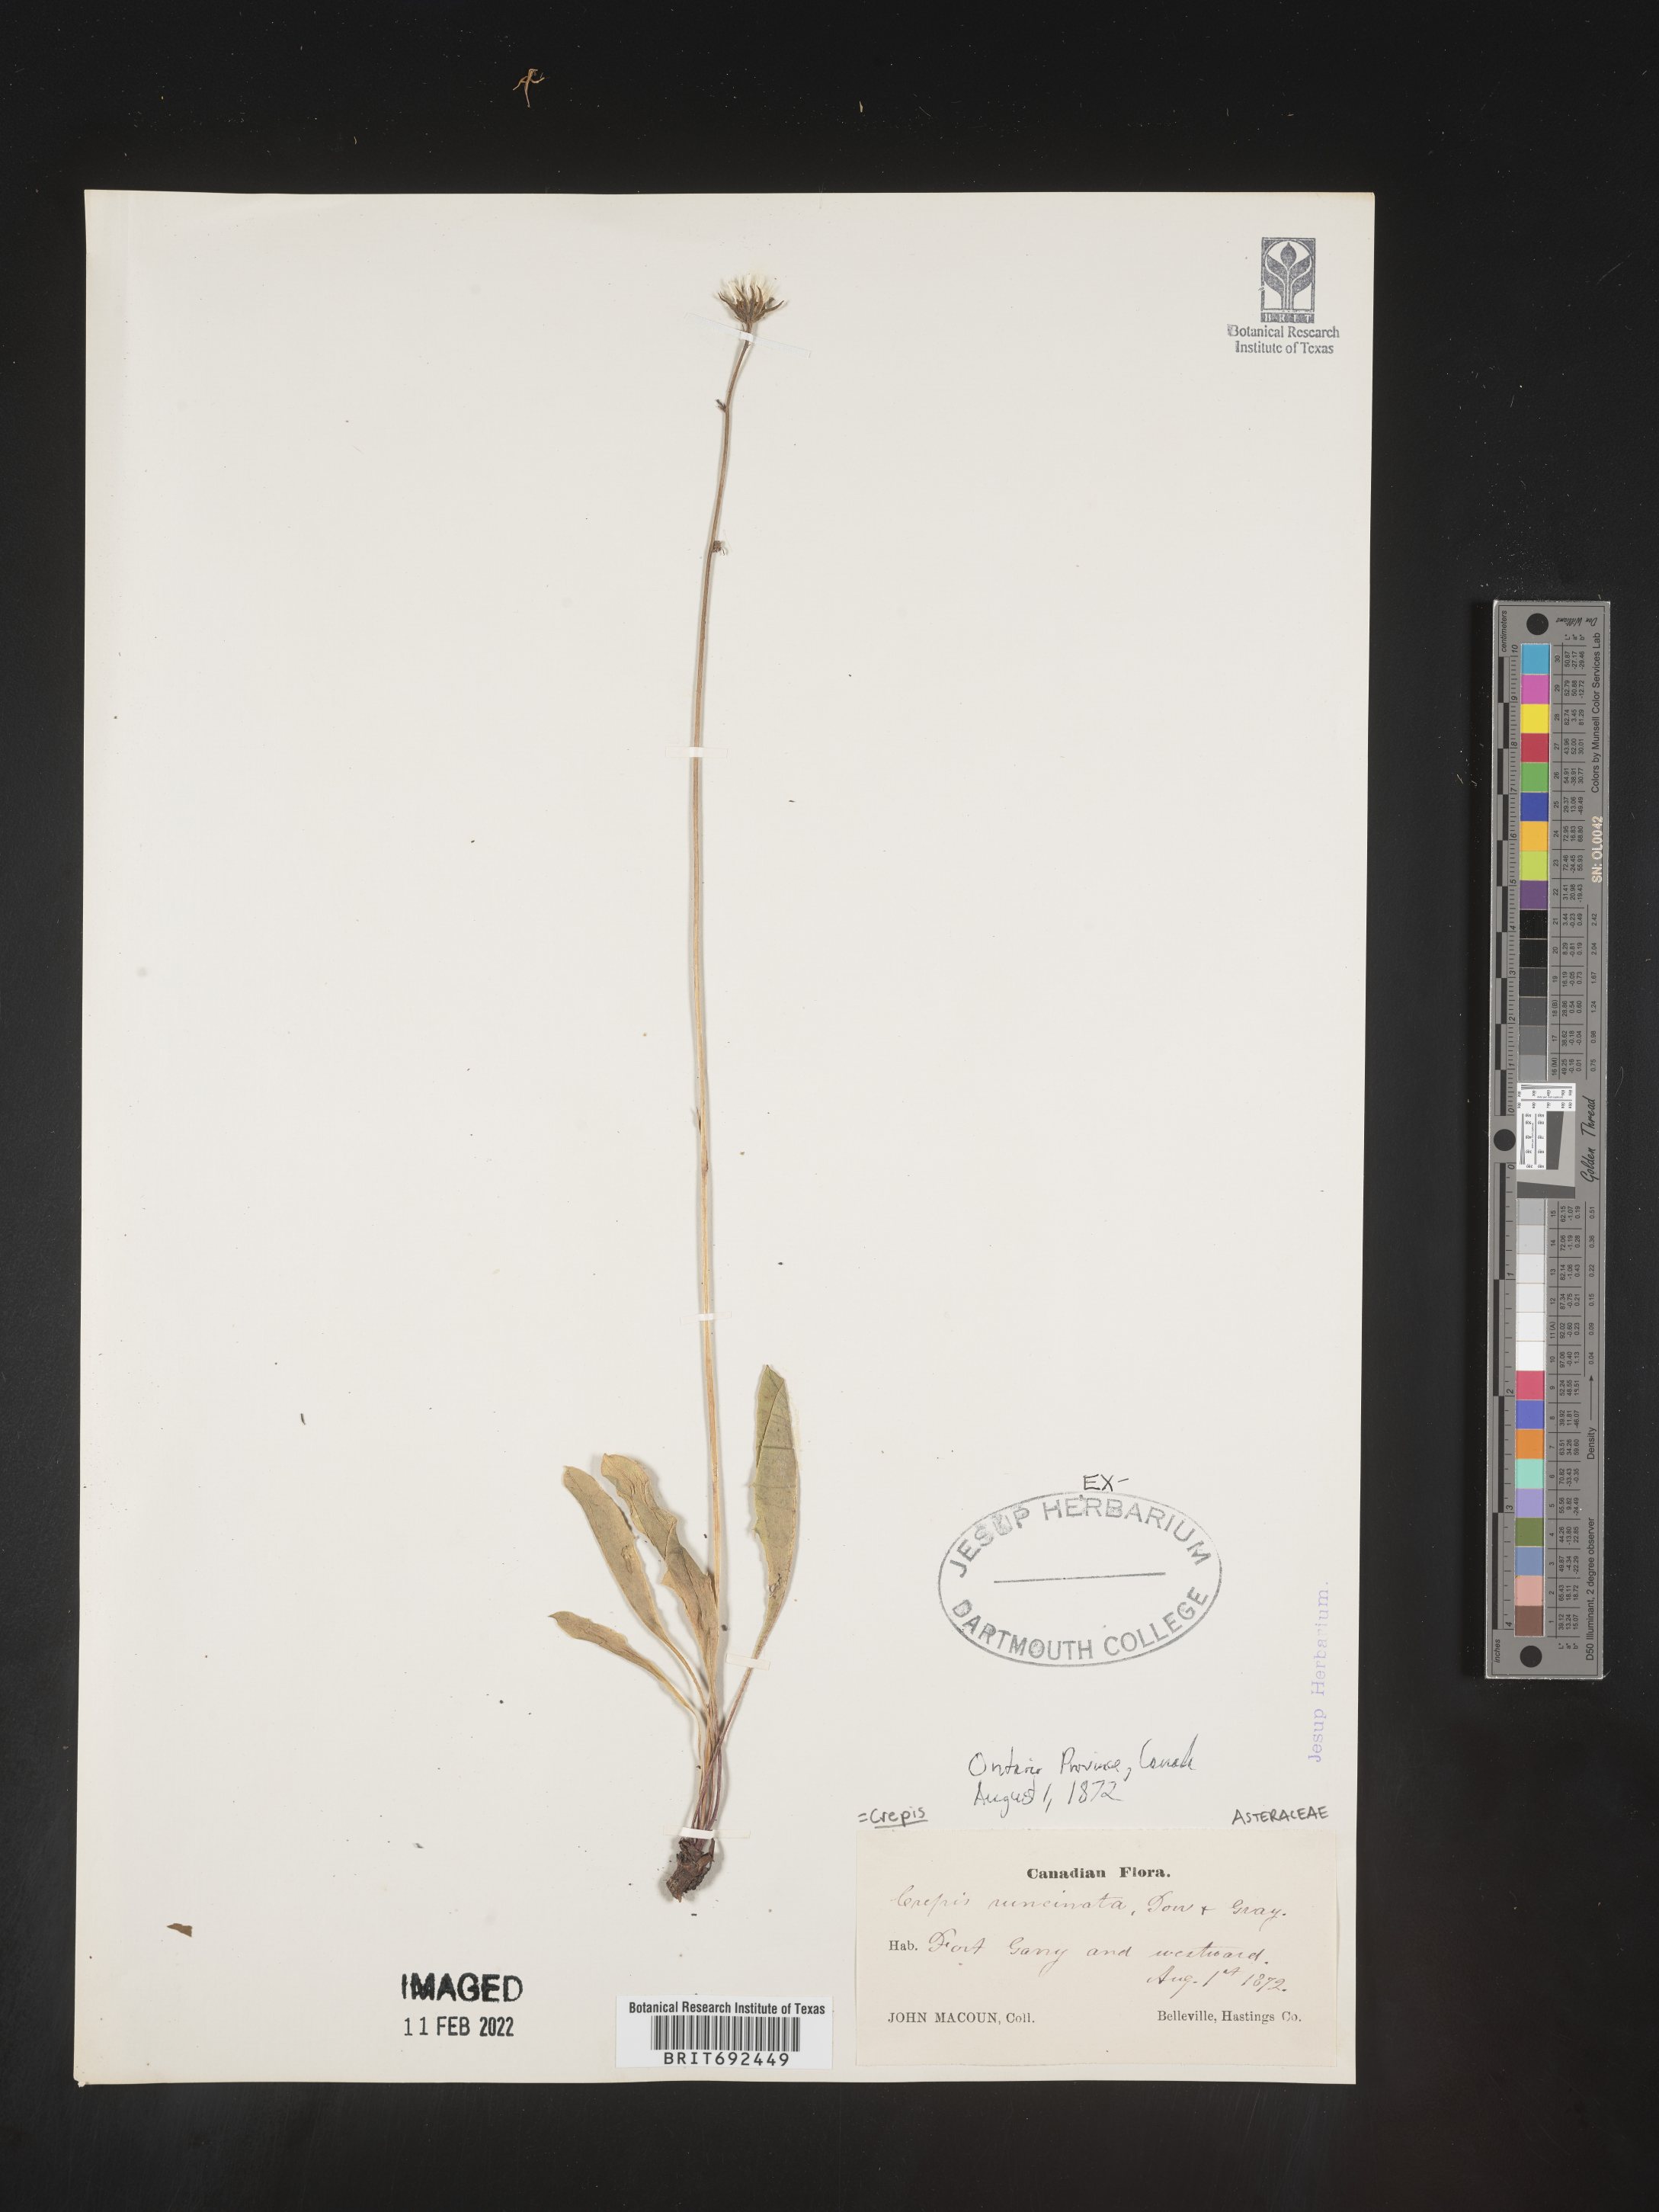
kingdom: Plantae
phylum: Tracheophyta
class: Magnoliopsida
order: Asterales
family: Asteraceae
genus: Crepis
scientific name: Crepis
